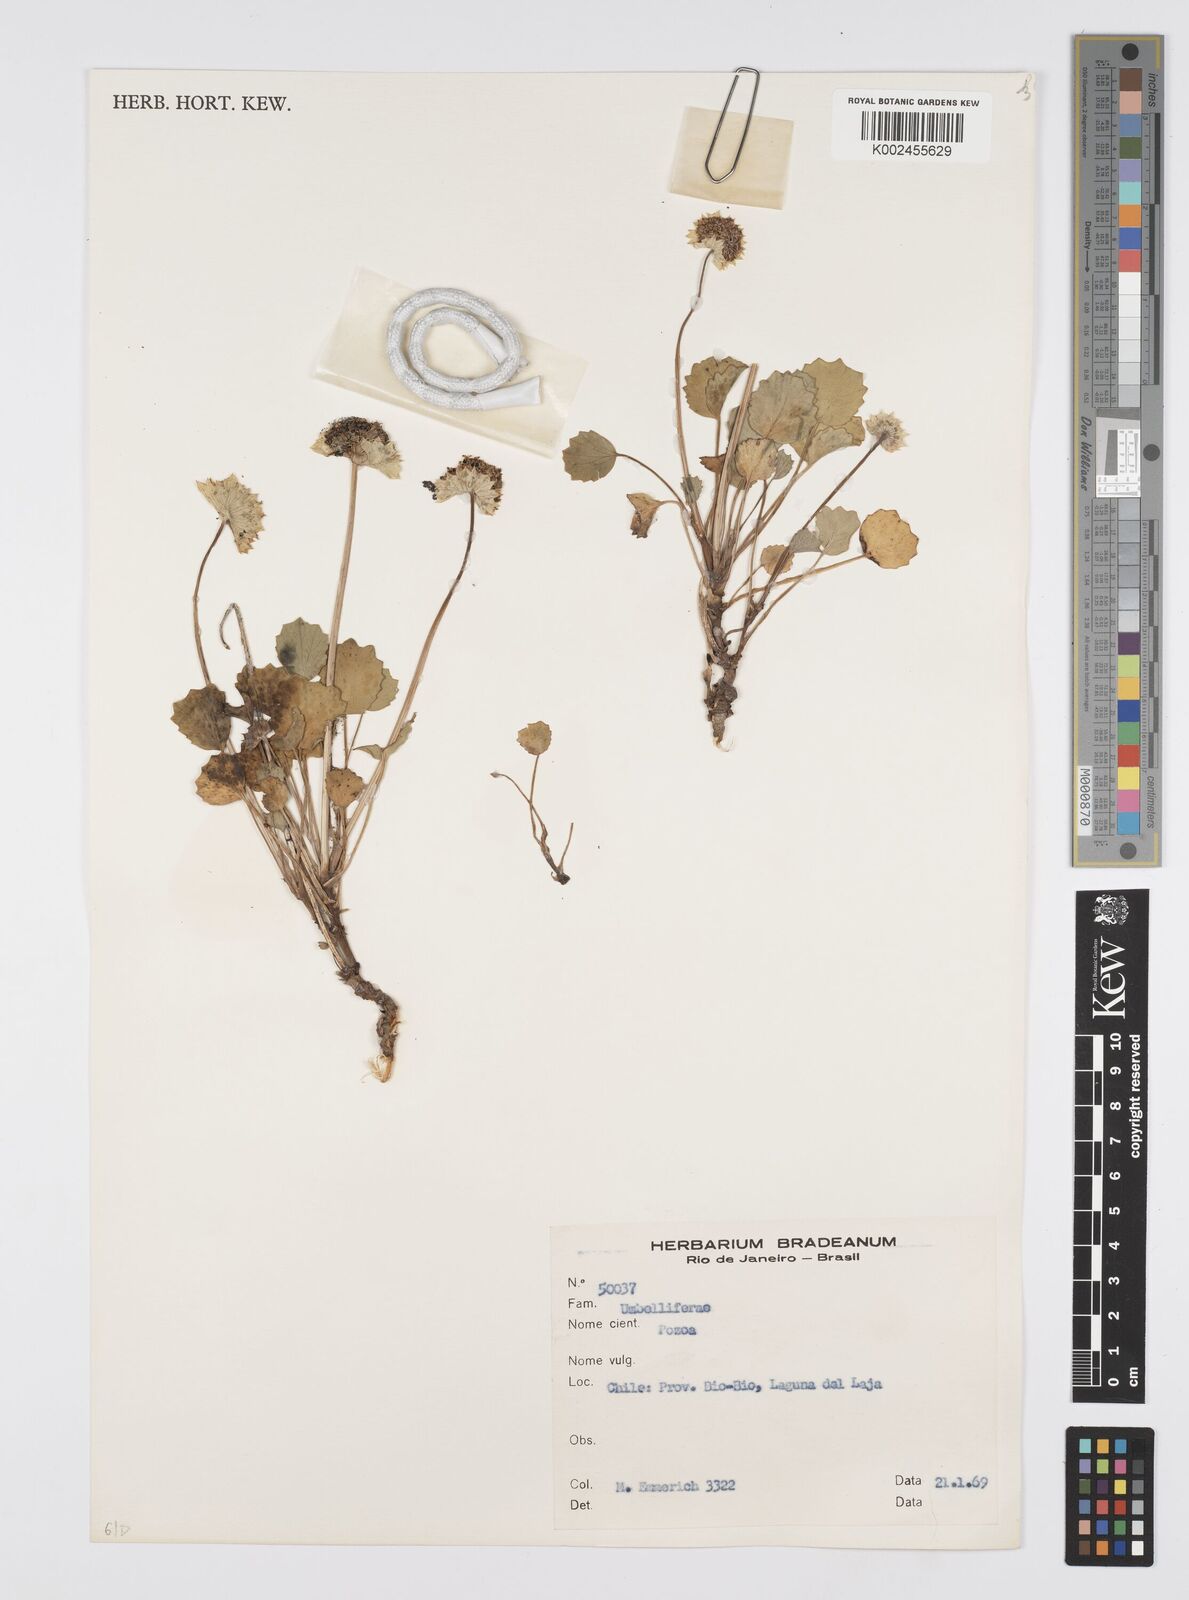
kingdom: Plantae
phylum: Tracheophyta
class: Magnoliopsida
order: Apiales
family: Apiaceae
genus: Pozoa
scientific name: Pozoa
